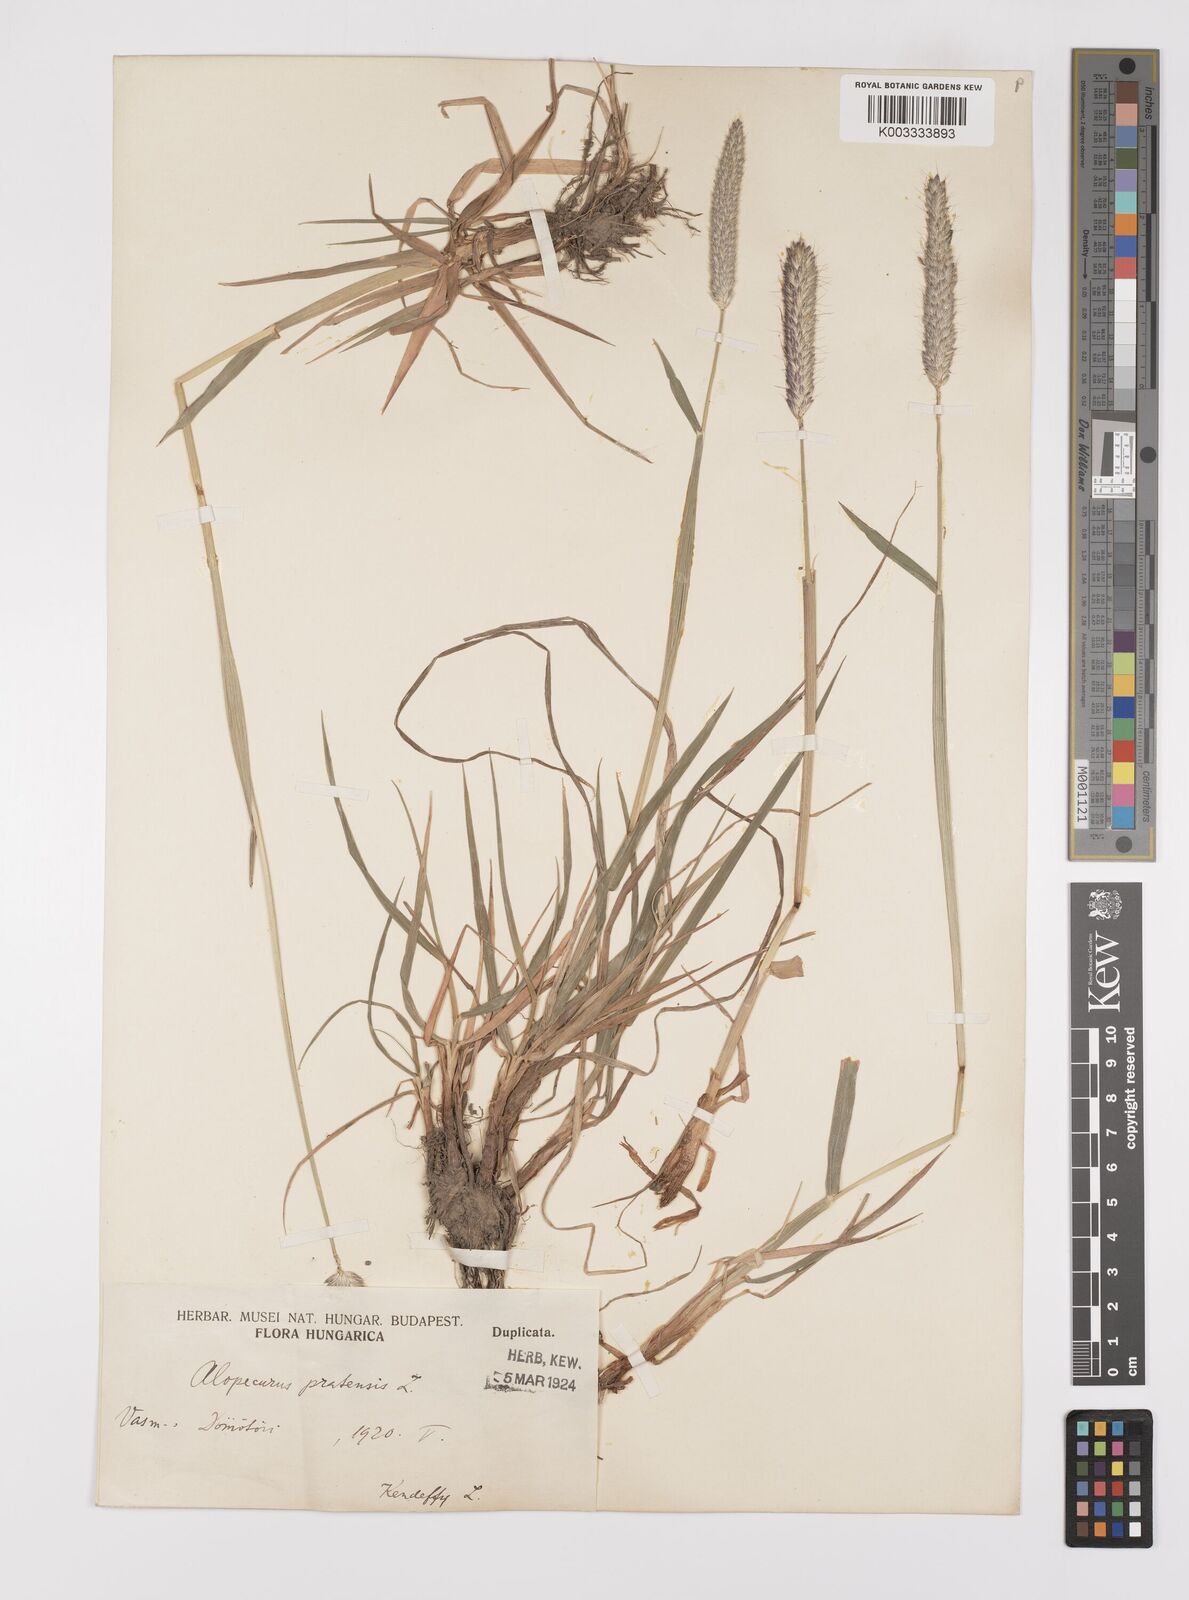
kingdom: Plantae
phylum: Tracheophyta
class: Liliopsida
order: Poales
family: Poaceae
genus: Alopecurus
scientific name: Alopecurus pratensis
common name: Meadow foxtail
